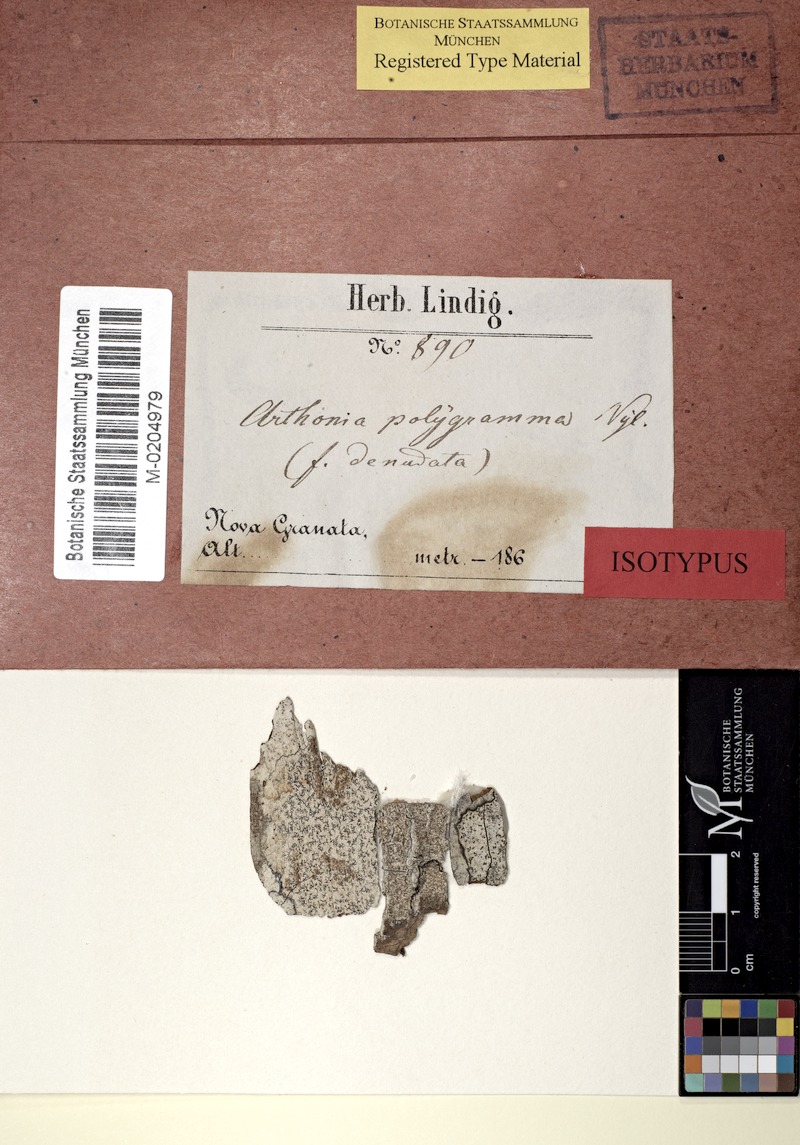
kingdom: Fungi
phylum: Ascomycota
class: Arthoniomycetes
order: Arthoniales
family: Arthoniaceae
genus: Arthonia
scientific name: Arthonia polygramma
